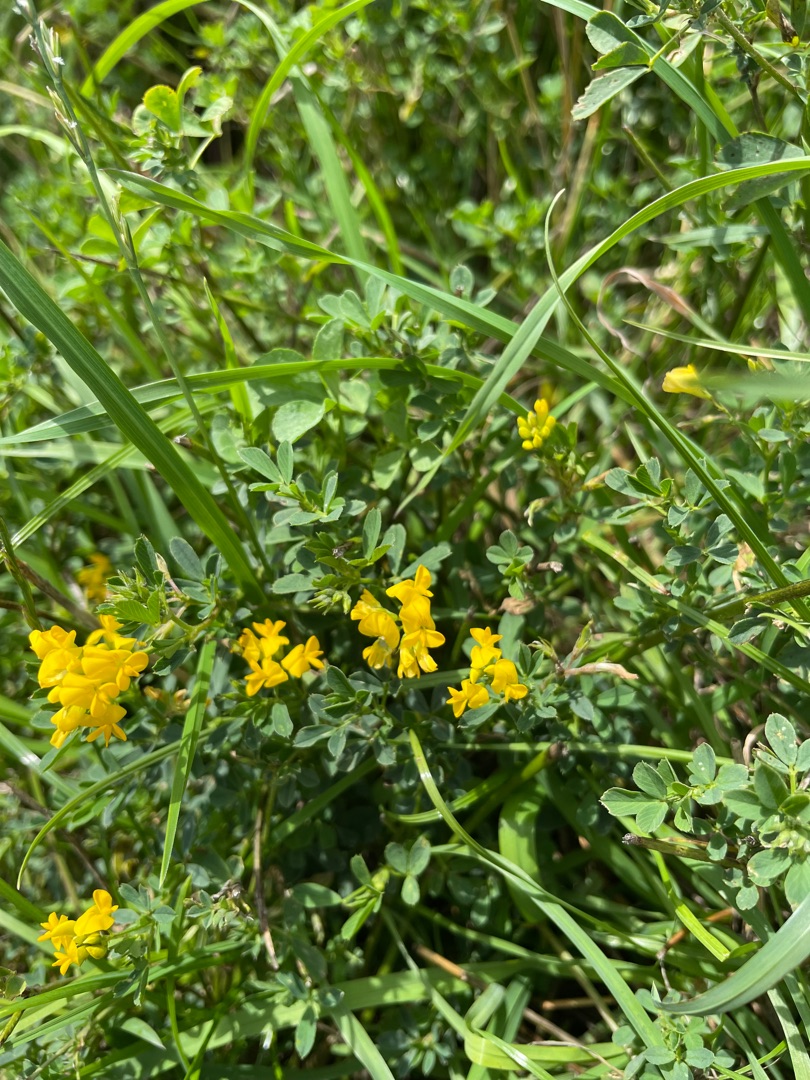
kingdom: Plantae
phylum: Tracheophyta
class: Magnoliopsida
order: Fabales
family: Fabaceae
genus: Medicago
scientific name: Medicago falcata
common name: Segl-sneglebælg
